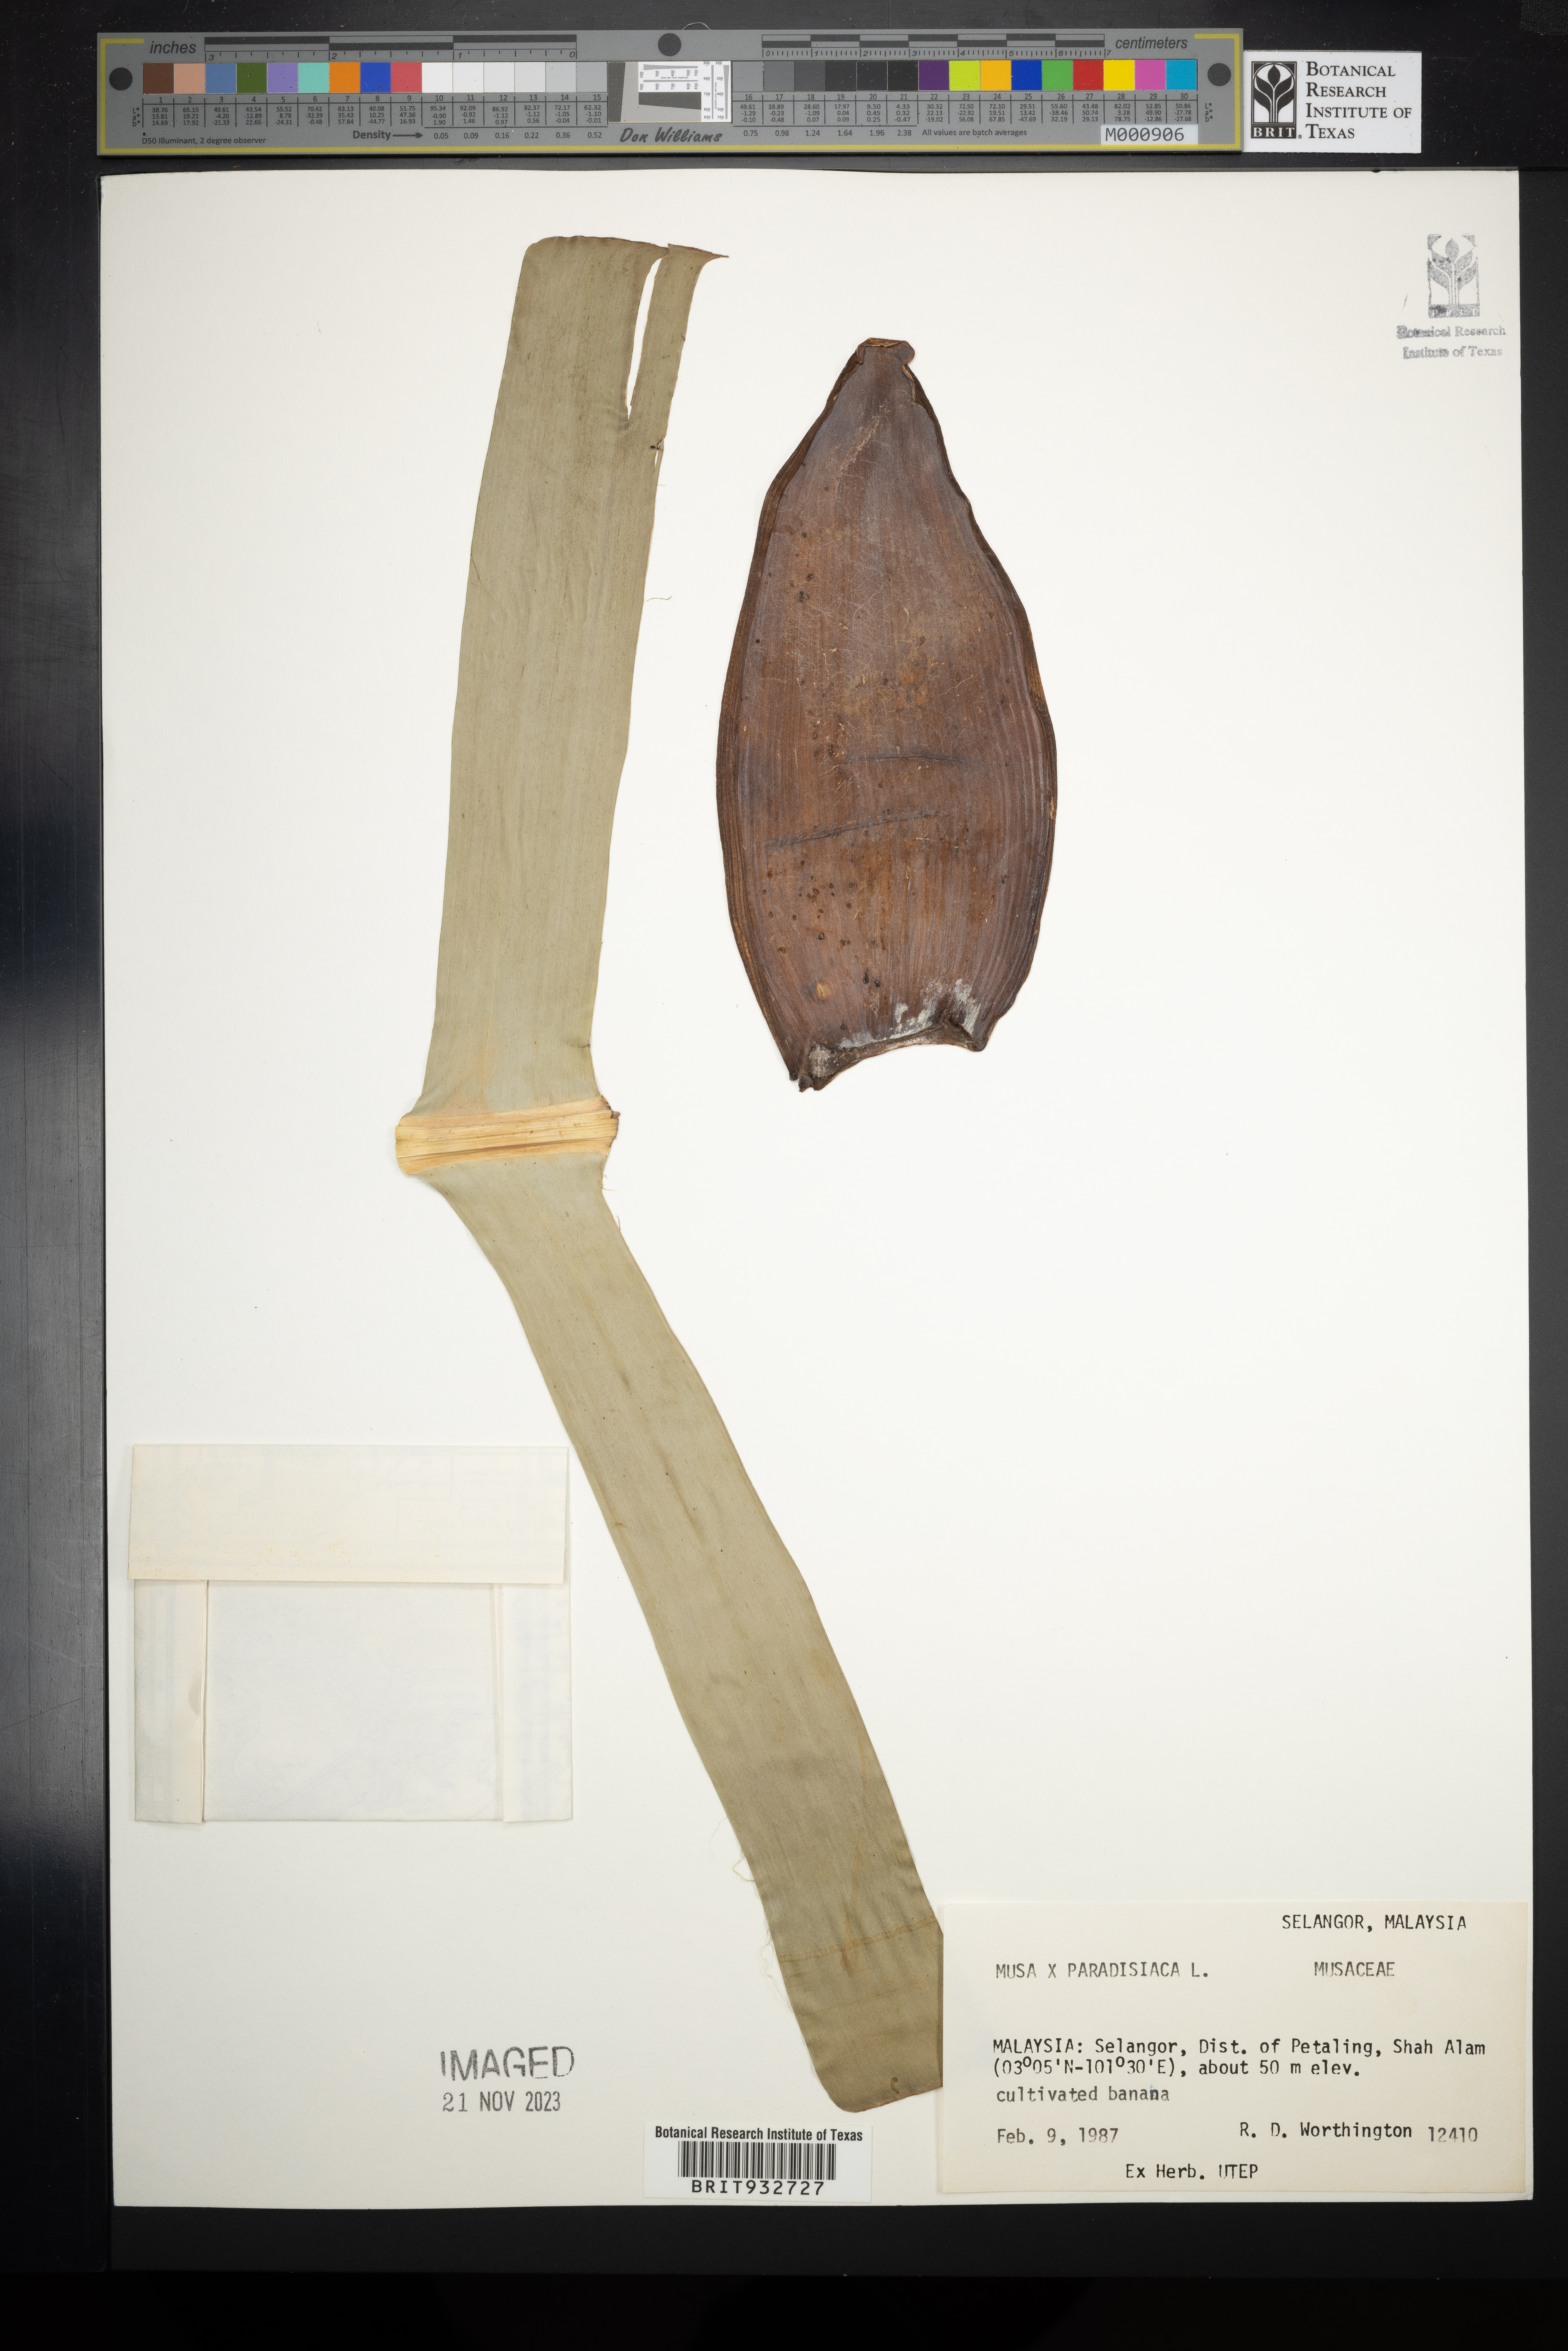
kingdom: Plantae
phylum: Tracheophyta
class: Liliopsida
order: Zingiberales
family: Musaceae
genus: Musa
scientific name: Musa
